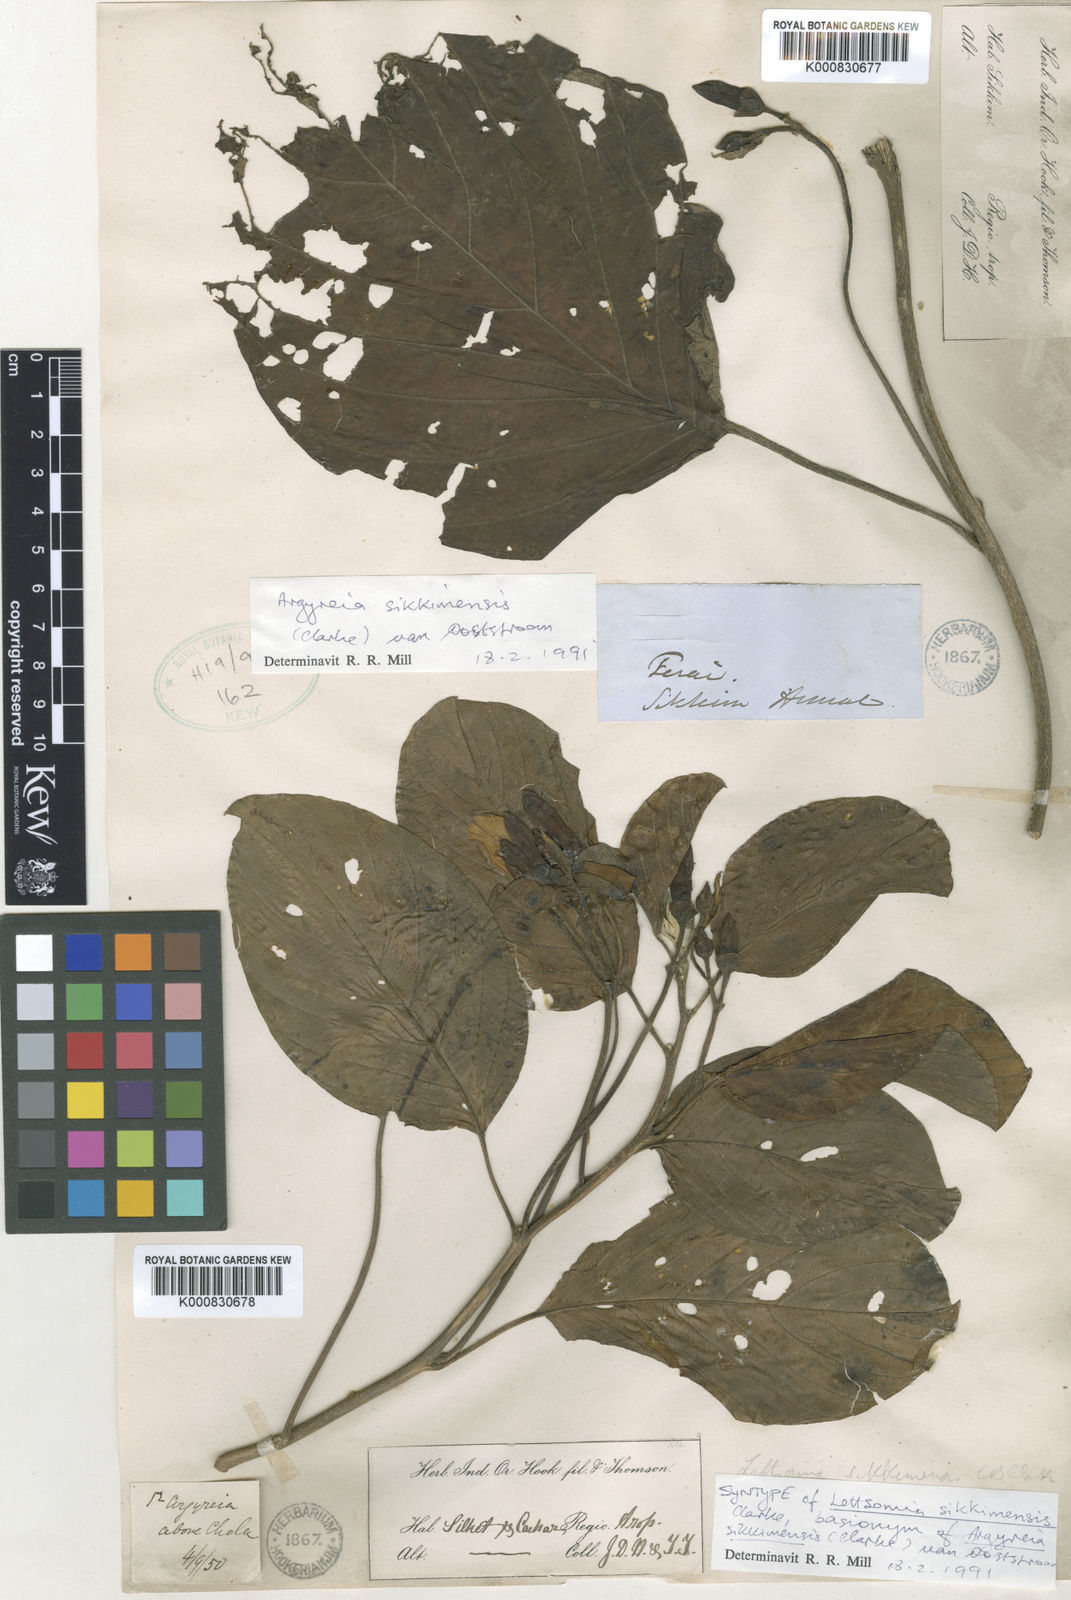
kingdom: Plantae
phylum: Tracheophyta
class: Magnoliopsida
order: Solanales
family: Convolvulaceae
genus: Argyreia
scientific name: Argyreia sikkimensis
